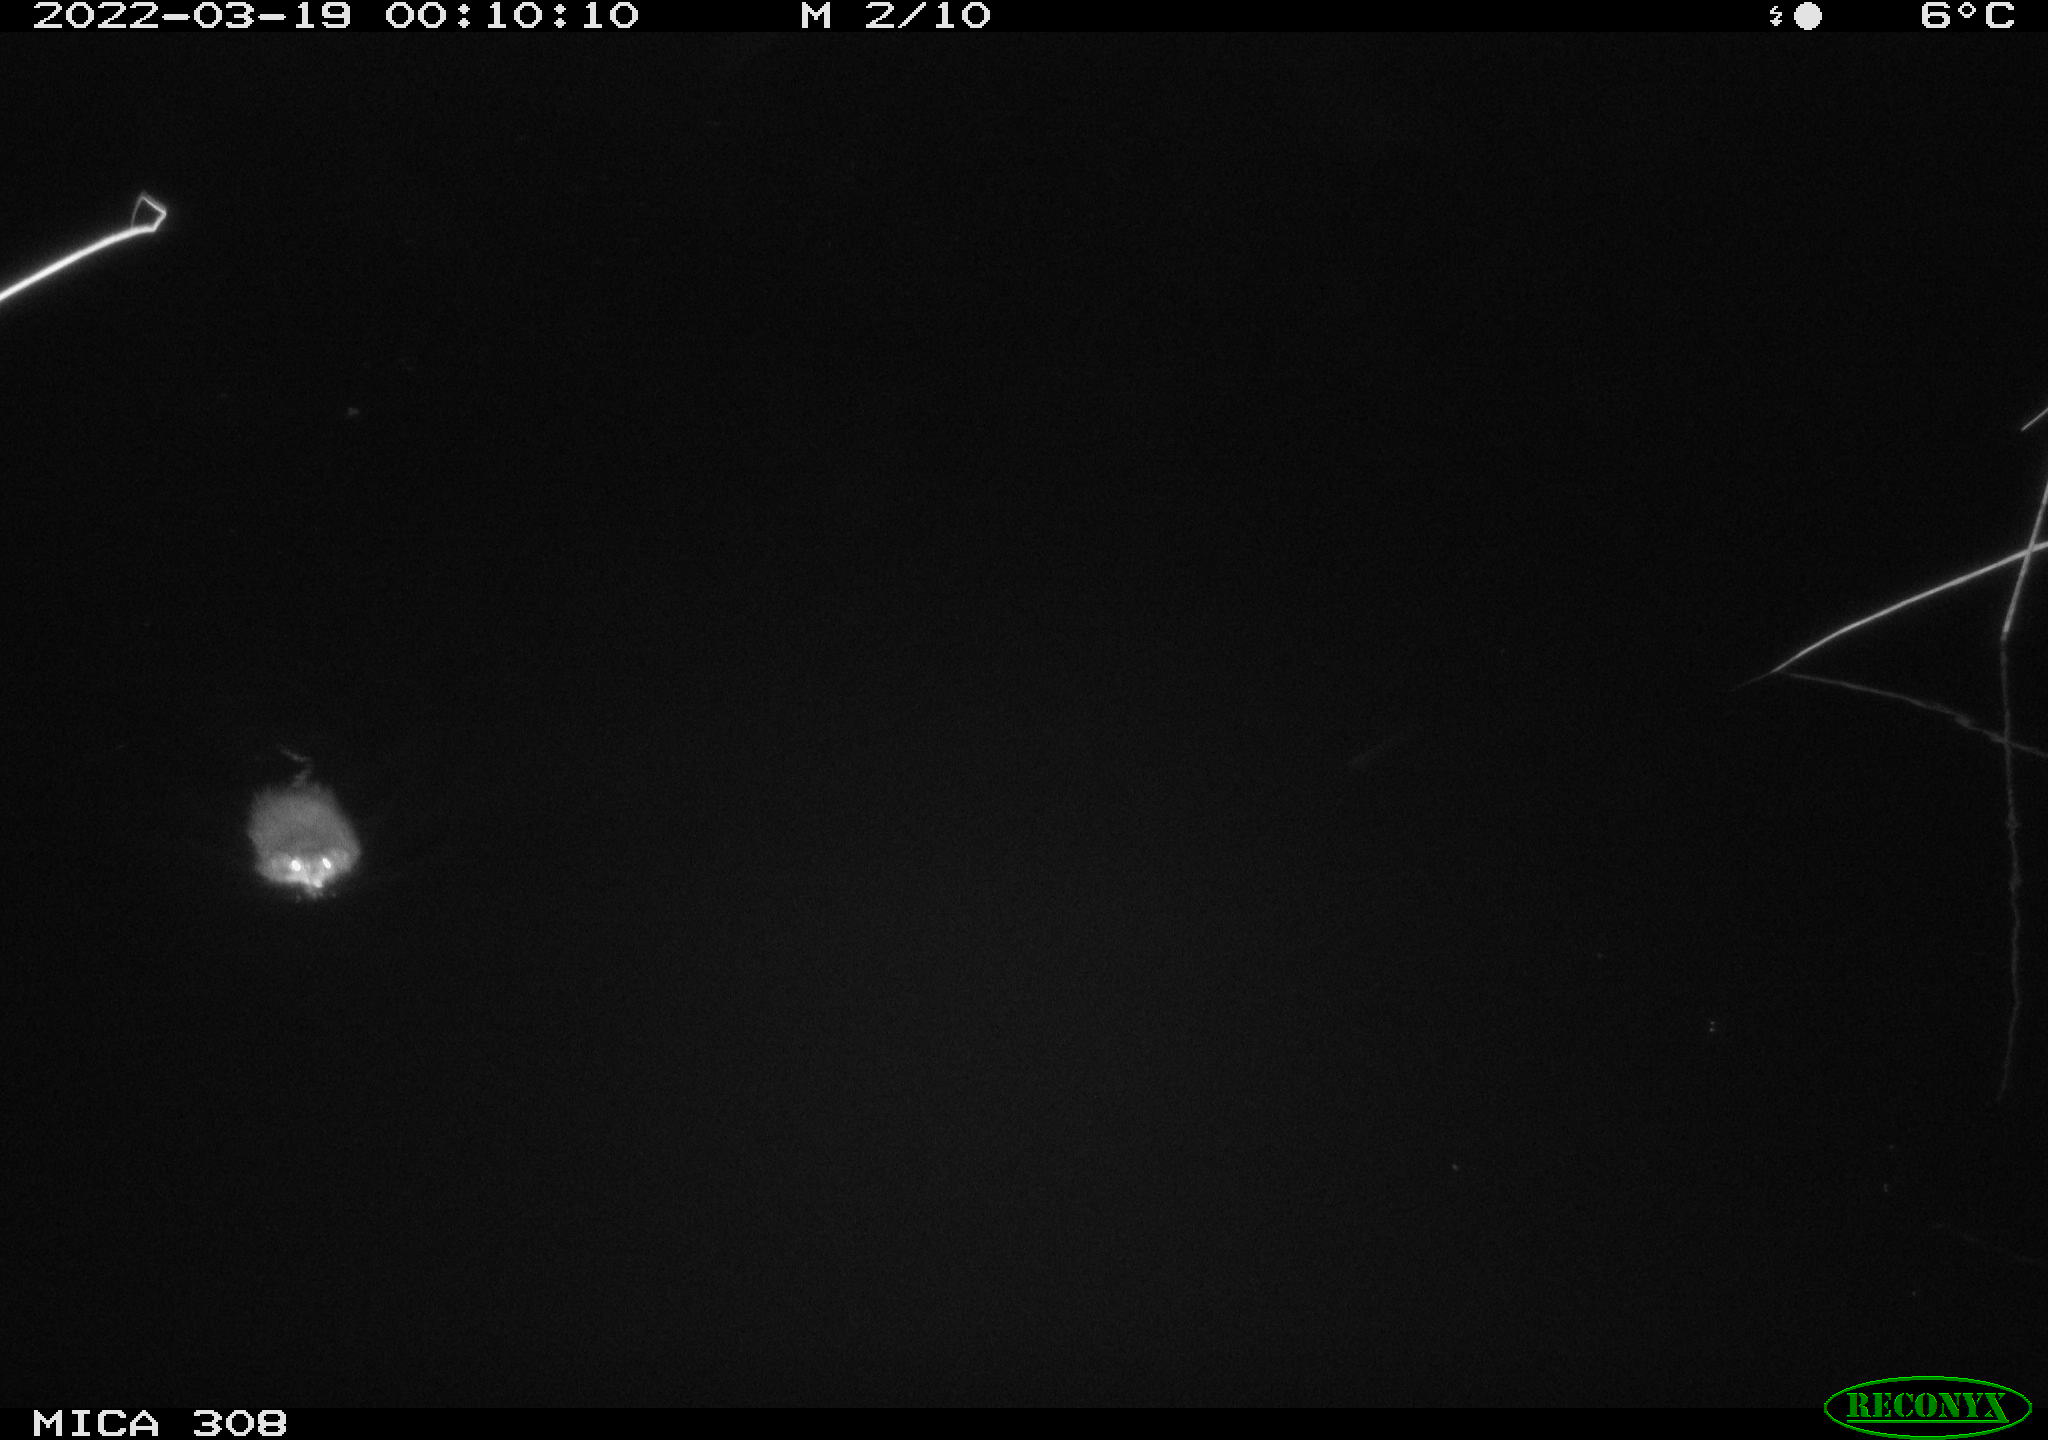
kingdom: Animalia
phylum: Chordata
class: Mammalia
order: Rodentia
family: Cricetidae
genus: Ondatra
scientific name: Ondatra zibethicus
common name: Muskrat
